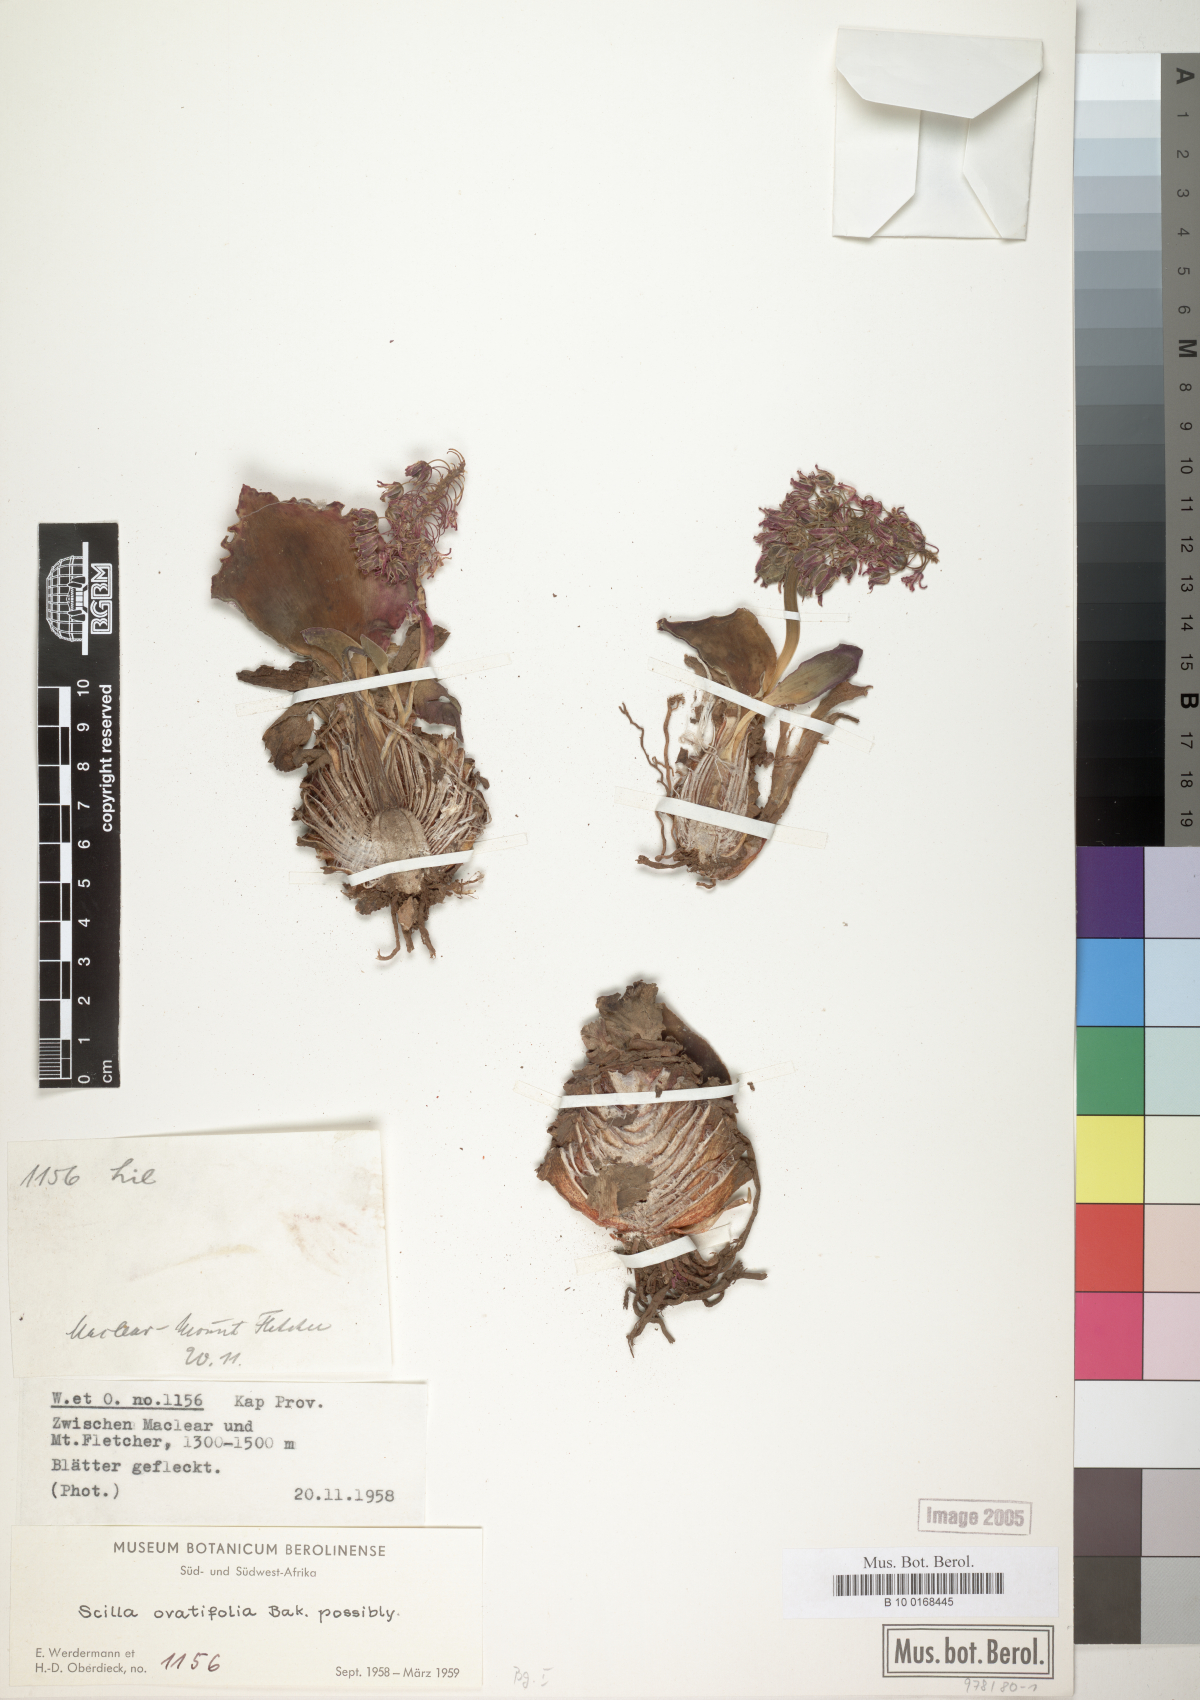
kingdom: Plantae
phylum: Tracheophyta
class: Liliopsida
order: Asparagales
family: Asparagaceae
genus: Ledebouria
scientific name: Ledebouria ovatifolia
